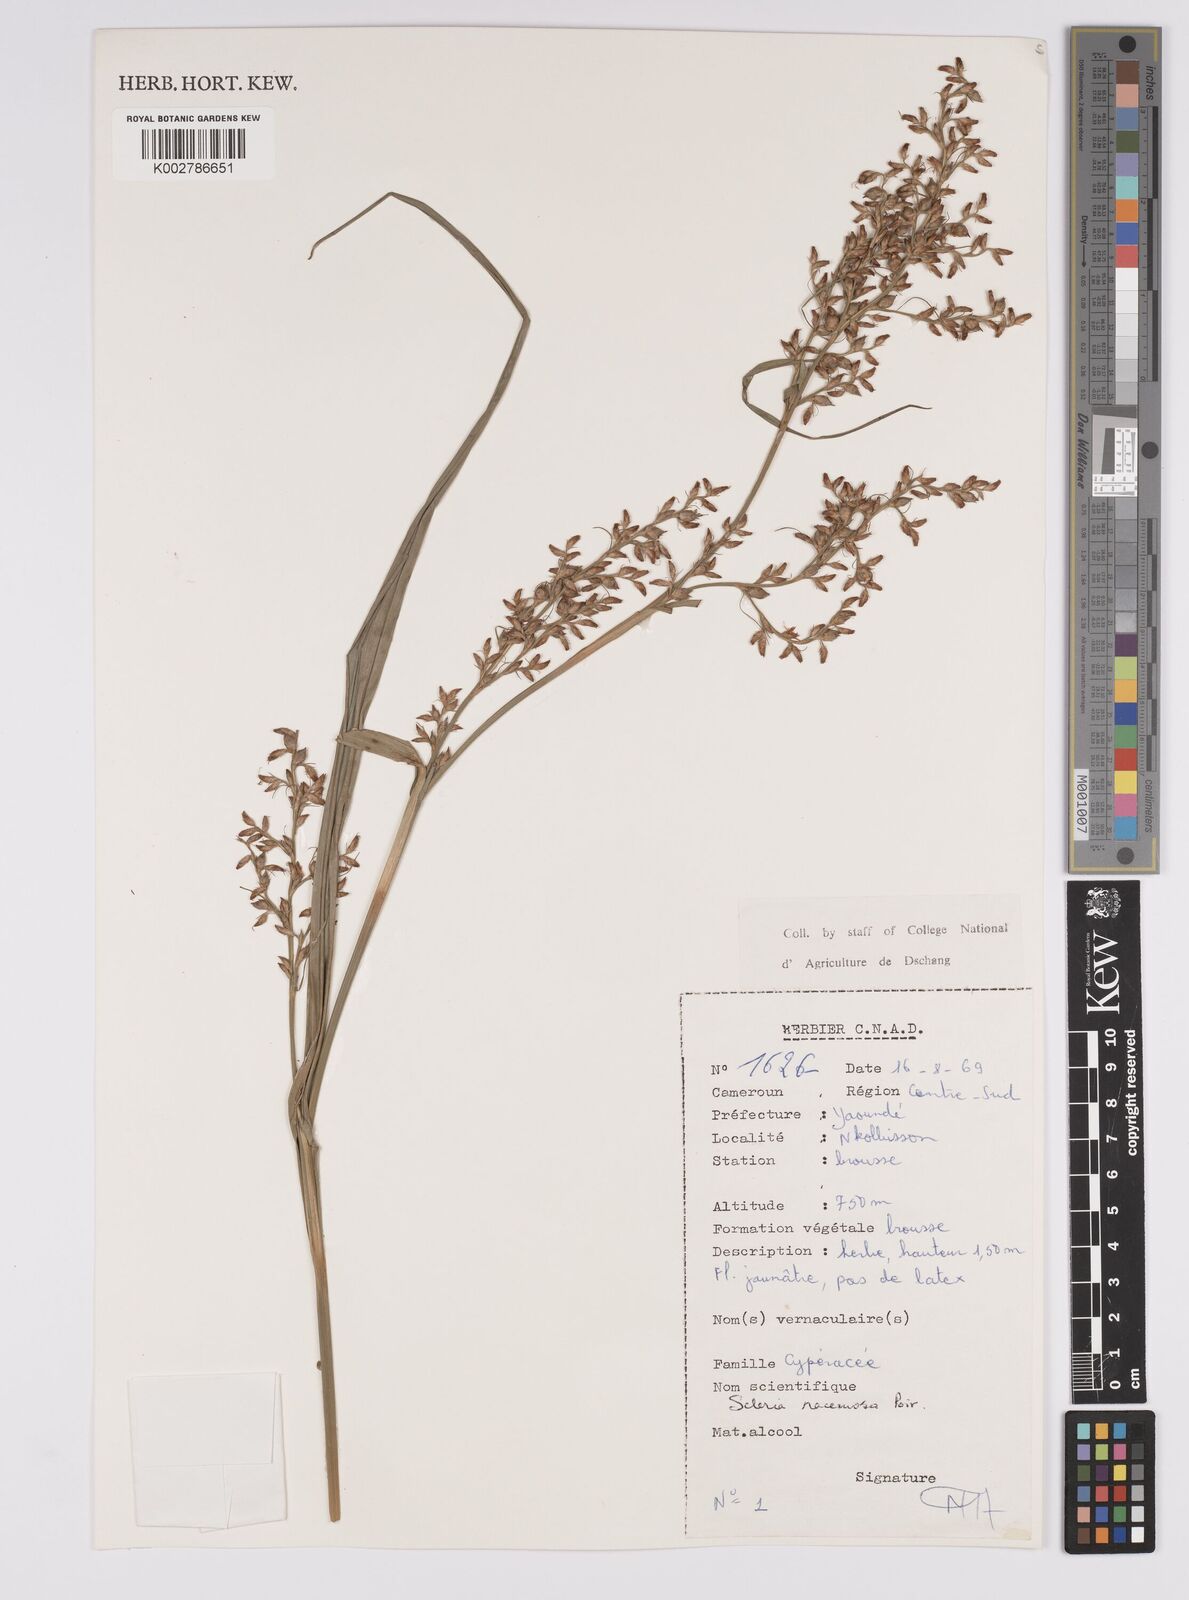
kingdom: Plantae
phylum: Tracheophyta
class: Liliopsida
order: Poales
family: Cyperaceae
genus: Scleria
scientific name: Scleria racemosa
